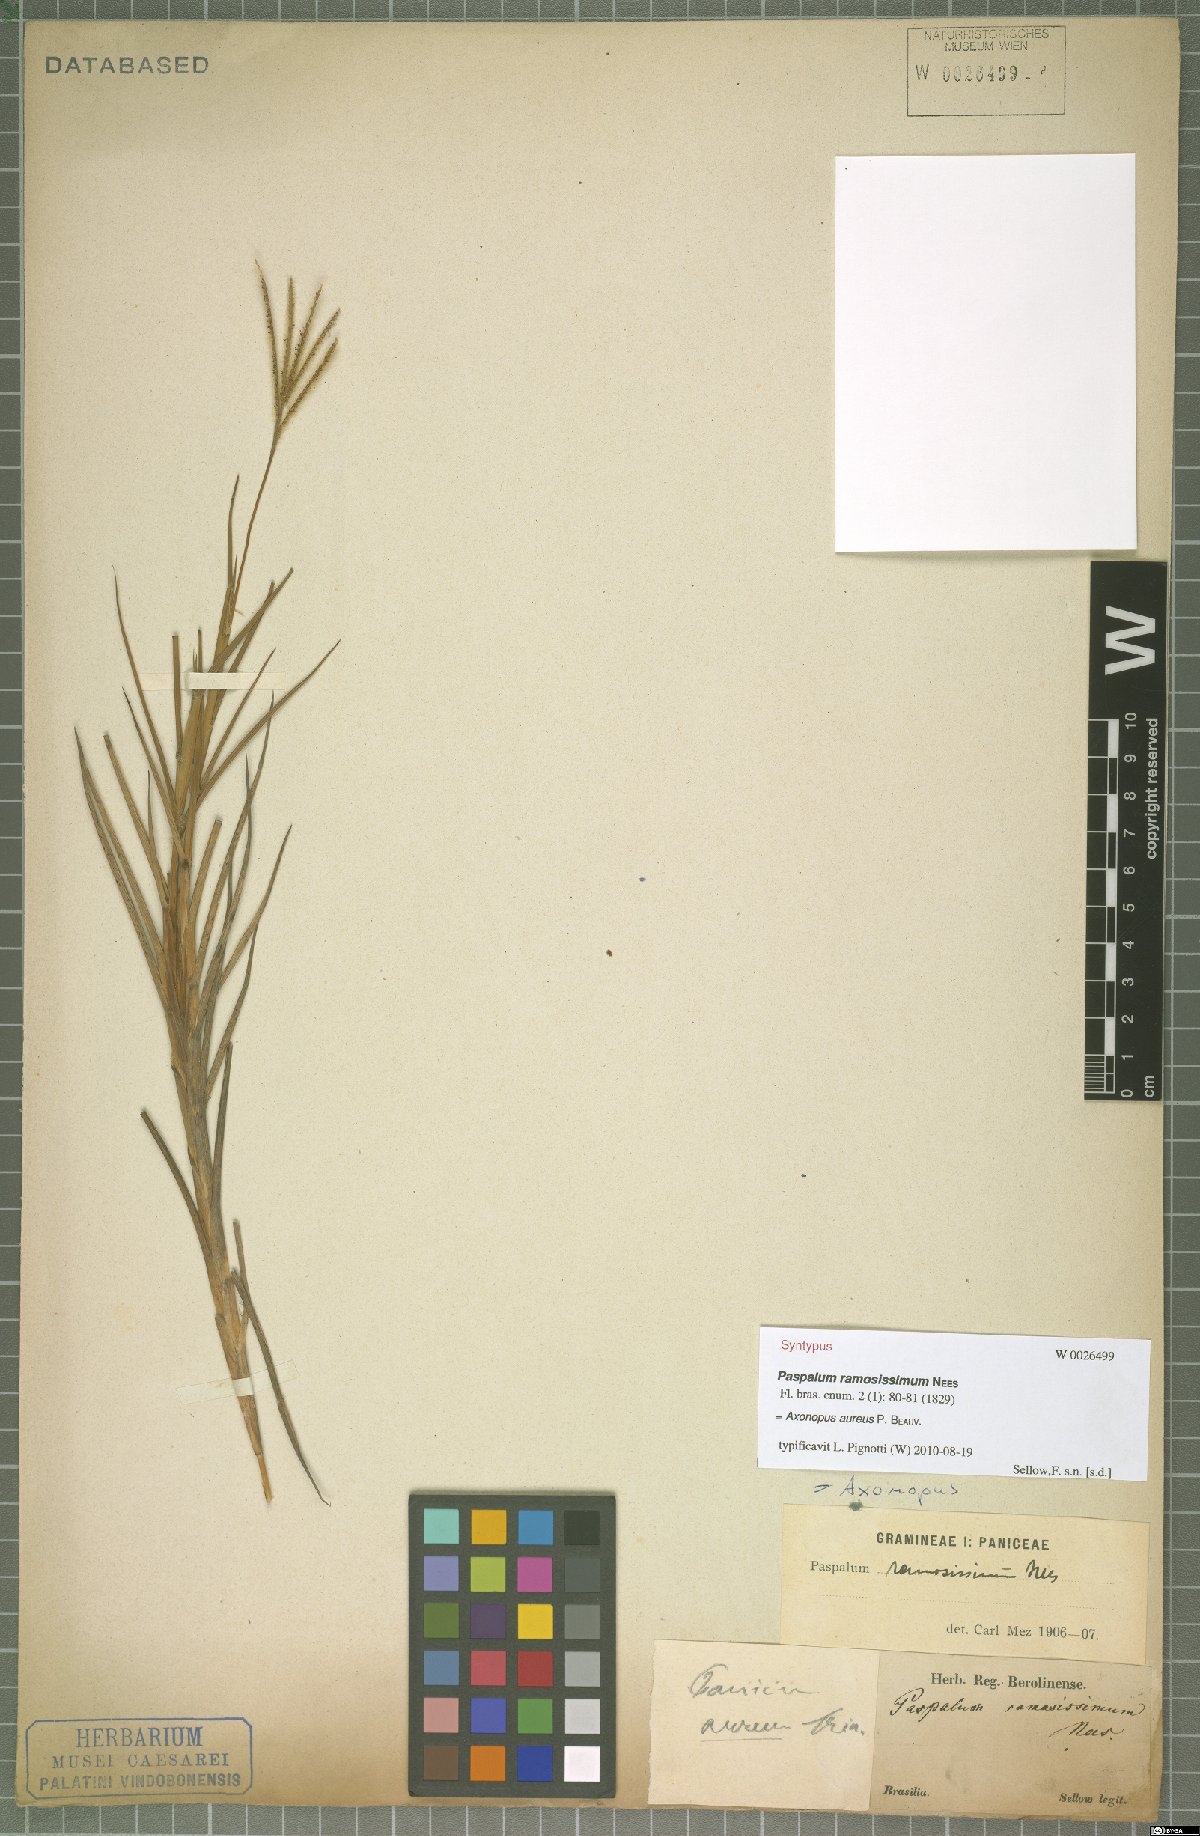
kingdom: Plantae
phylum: Tracheophyta
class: Liliopsida
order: Poales
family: Poaceae
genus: Axonopus
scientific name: Axonopus aureus
